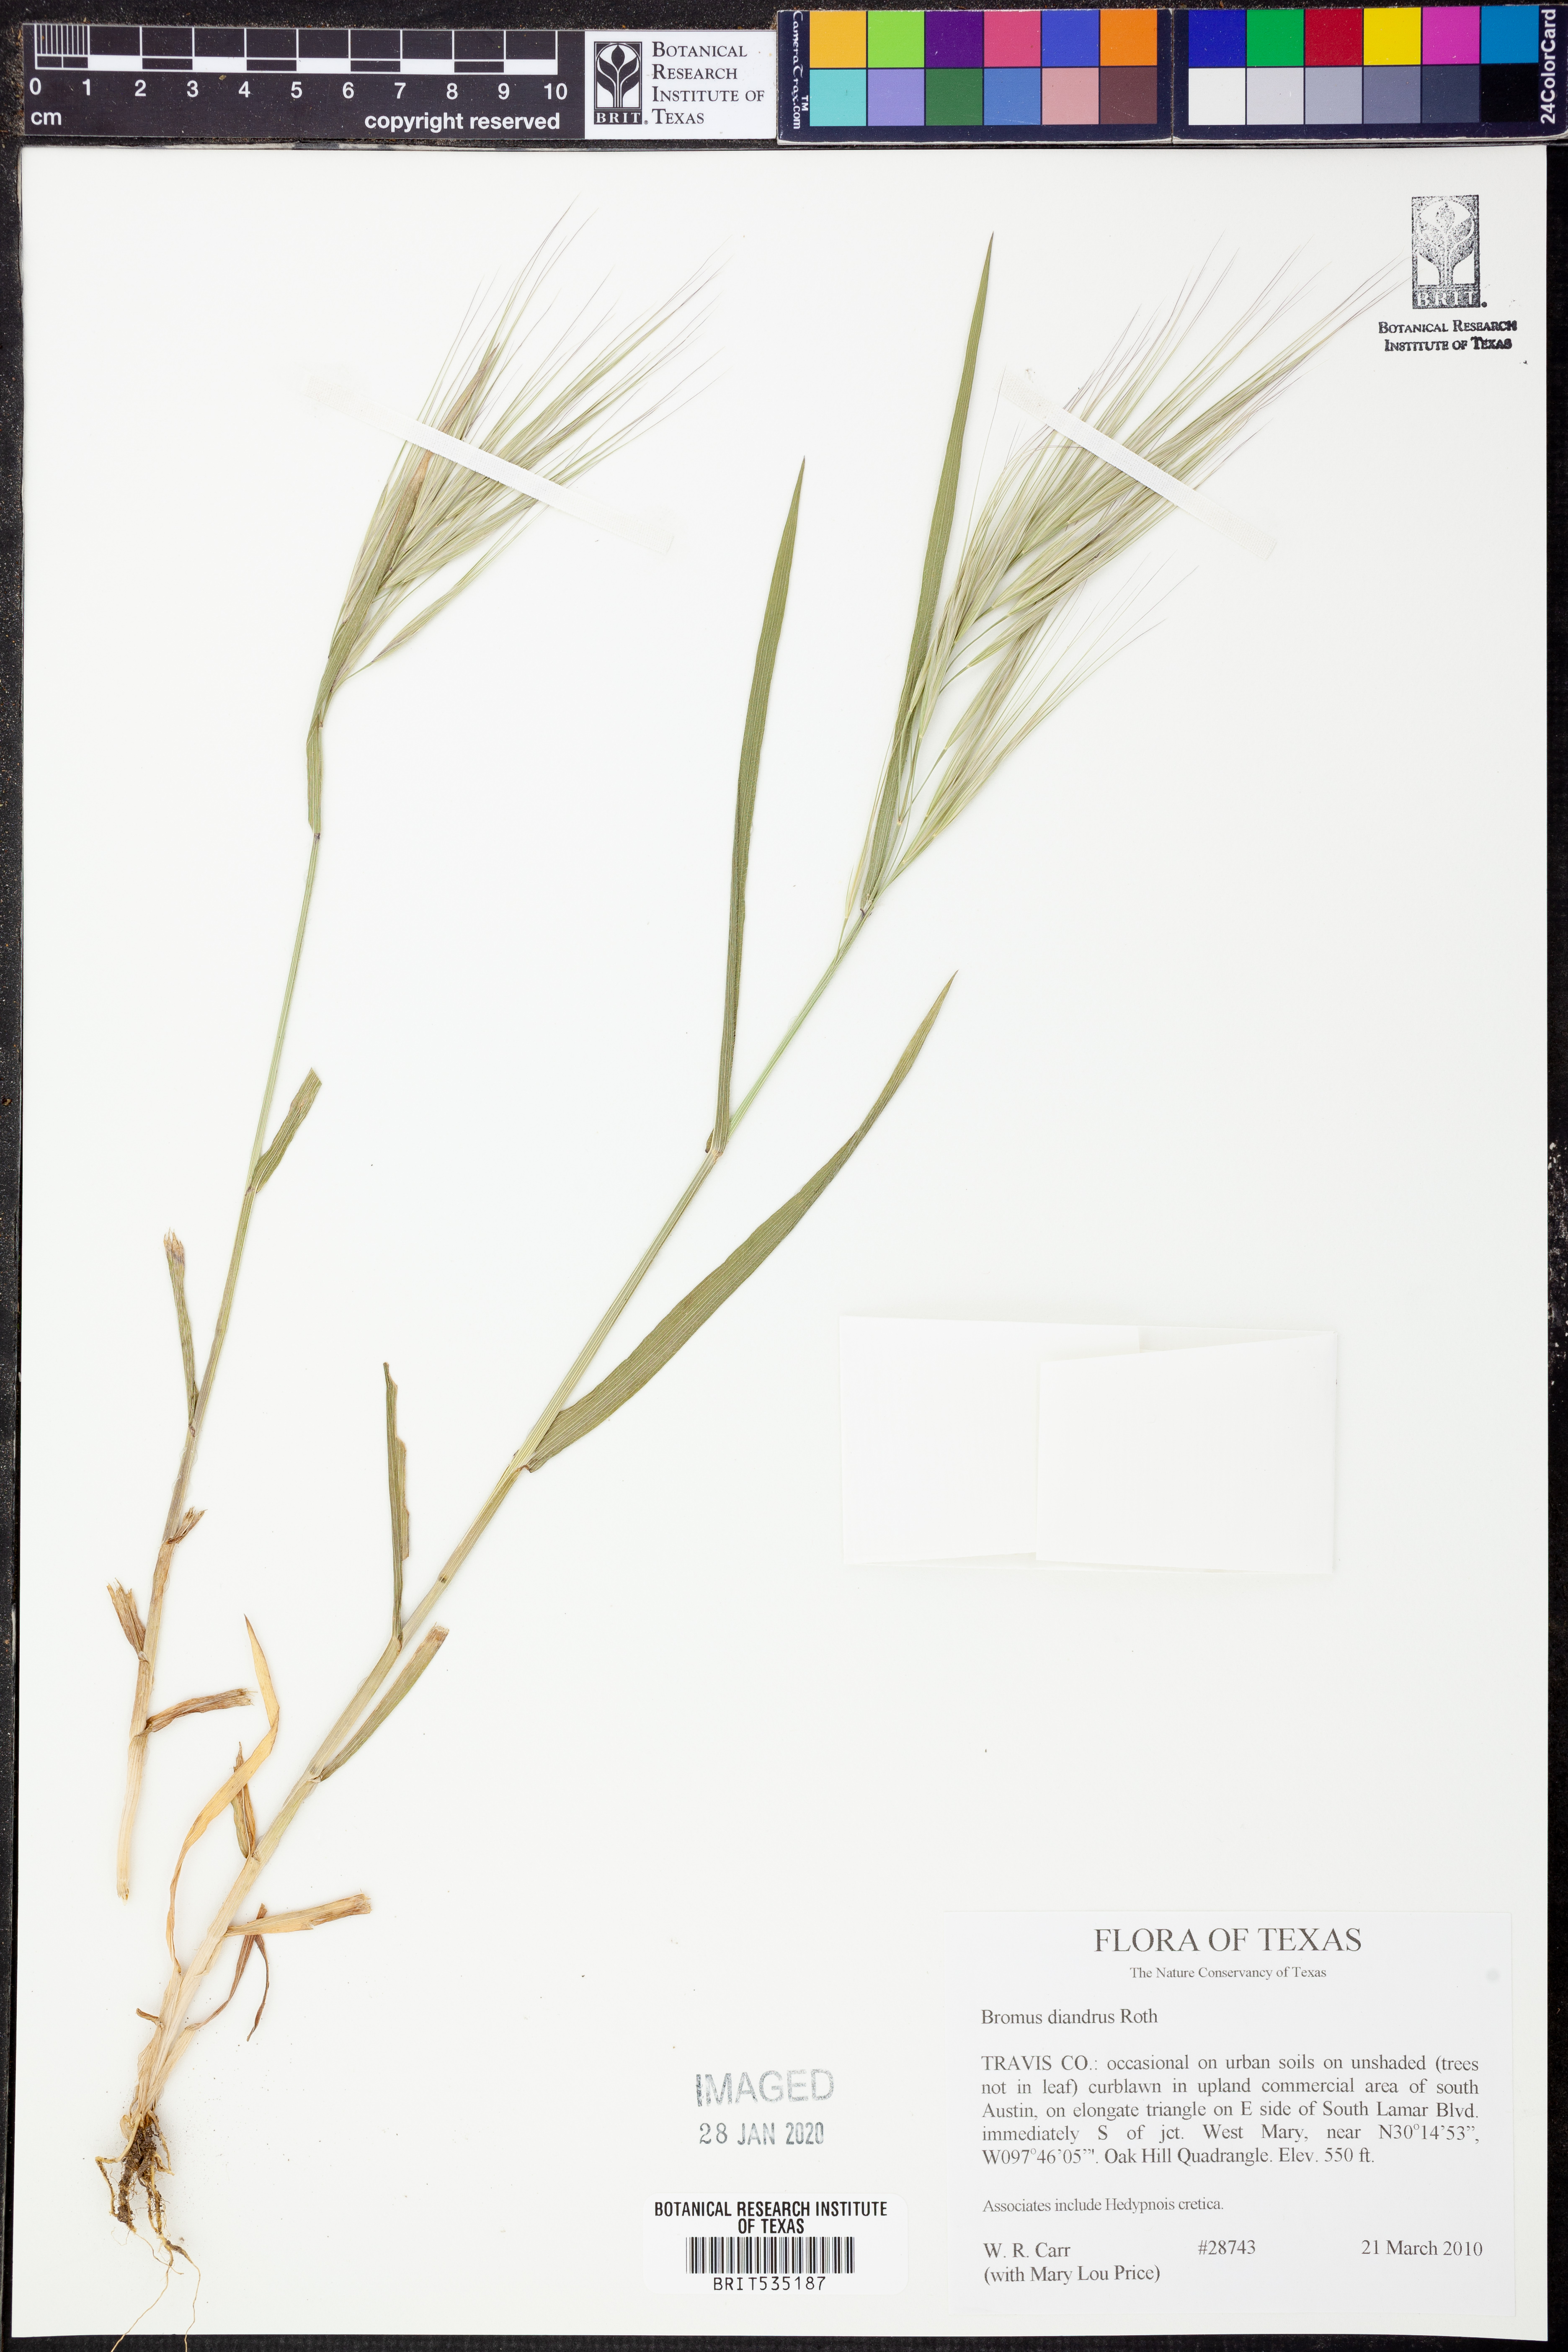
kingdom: Plantae
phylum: Tracheophyta
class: Liliopsida
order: Poales
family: Poaceae
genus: Bromus
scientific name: Bromus diandrus
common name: Ripgut brome
